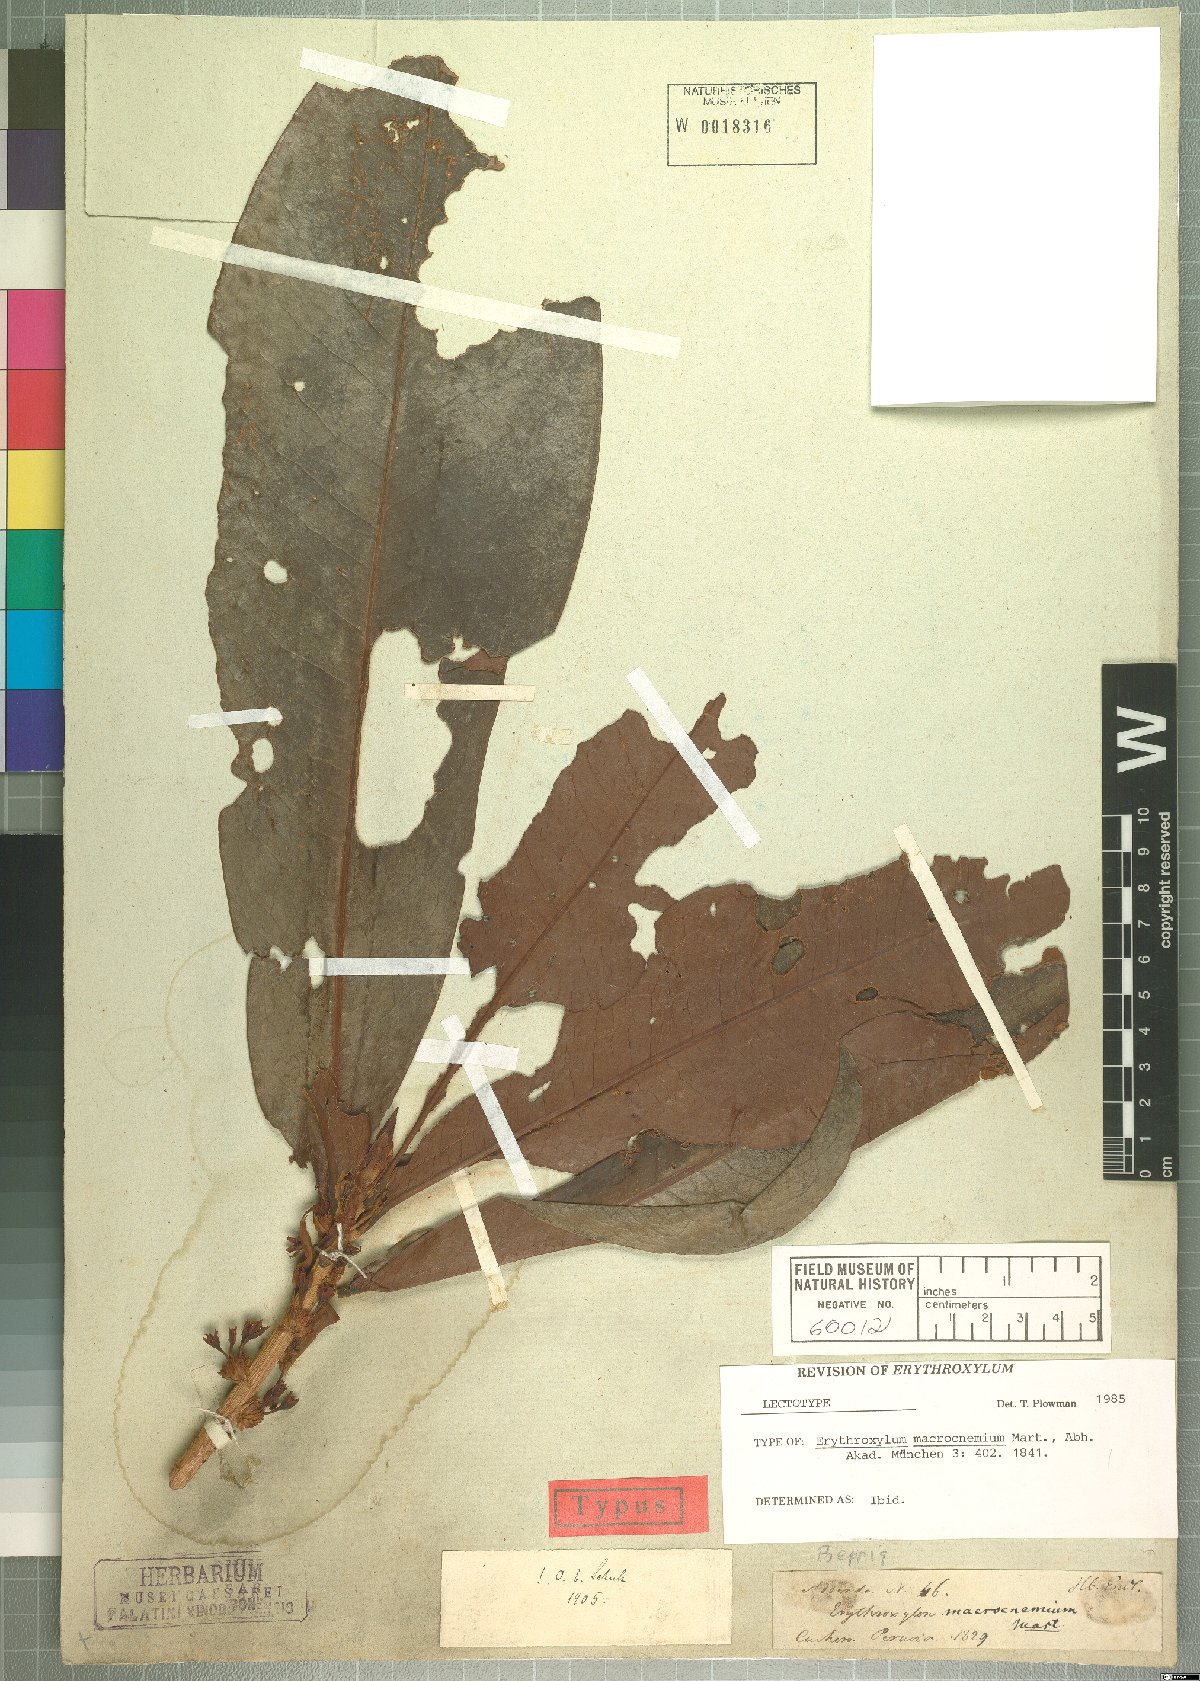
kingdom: Plantae
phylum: Tracheophyta
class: Magnoliopsida
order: Malpighiales
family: Erythroxylaceae
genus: Erythroxylum
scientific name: Erythroxylum macrophyllum
